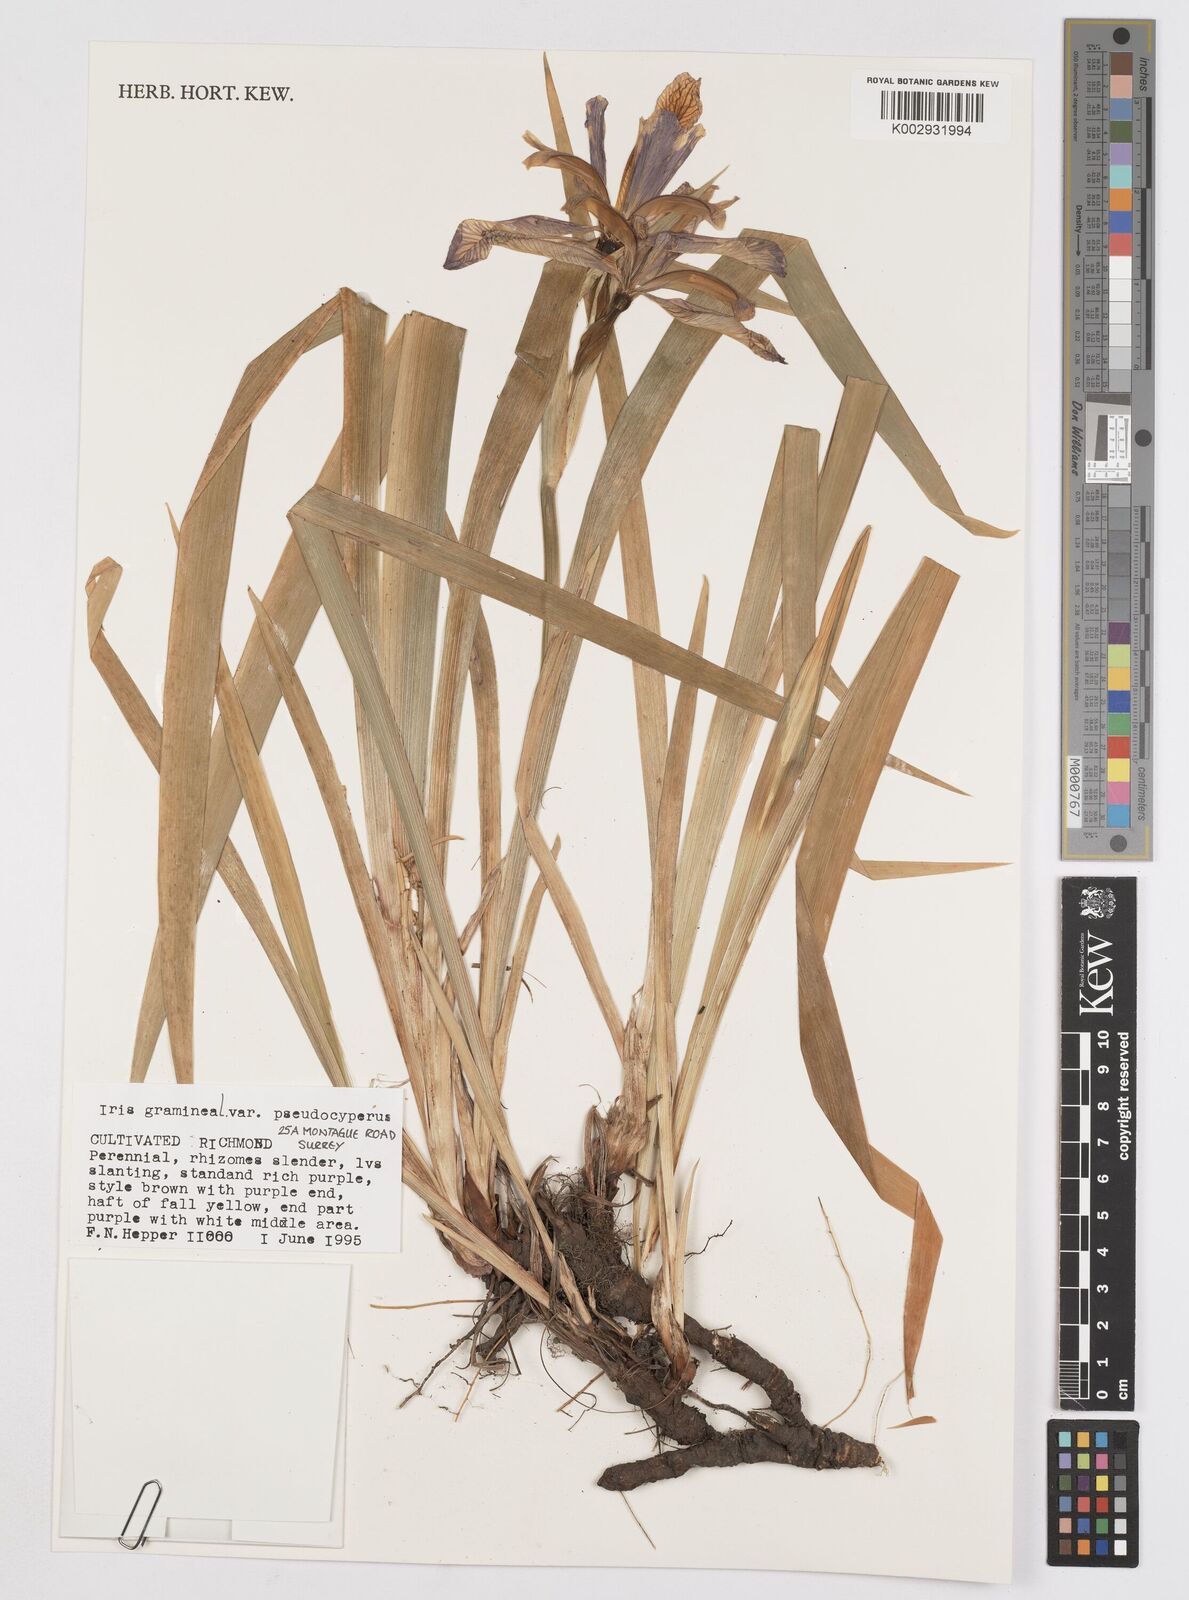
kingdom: Plantae
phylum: Tracheophyta
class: Liliopsida
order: Asparagales
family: Iridaceae
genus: Iris
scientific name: Iris graminea
